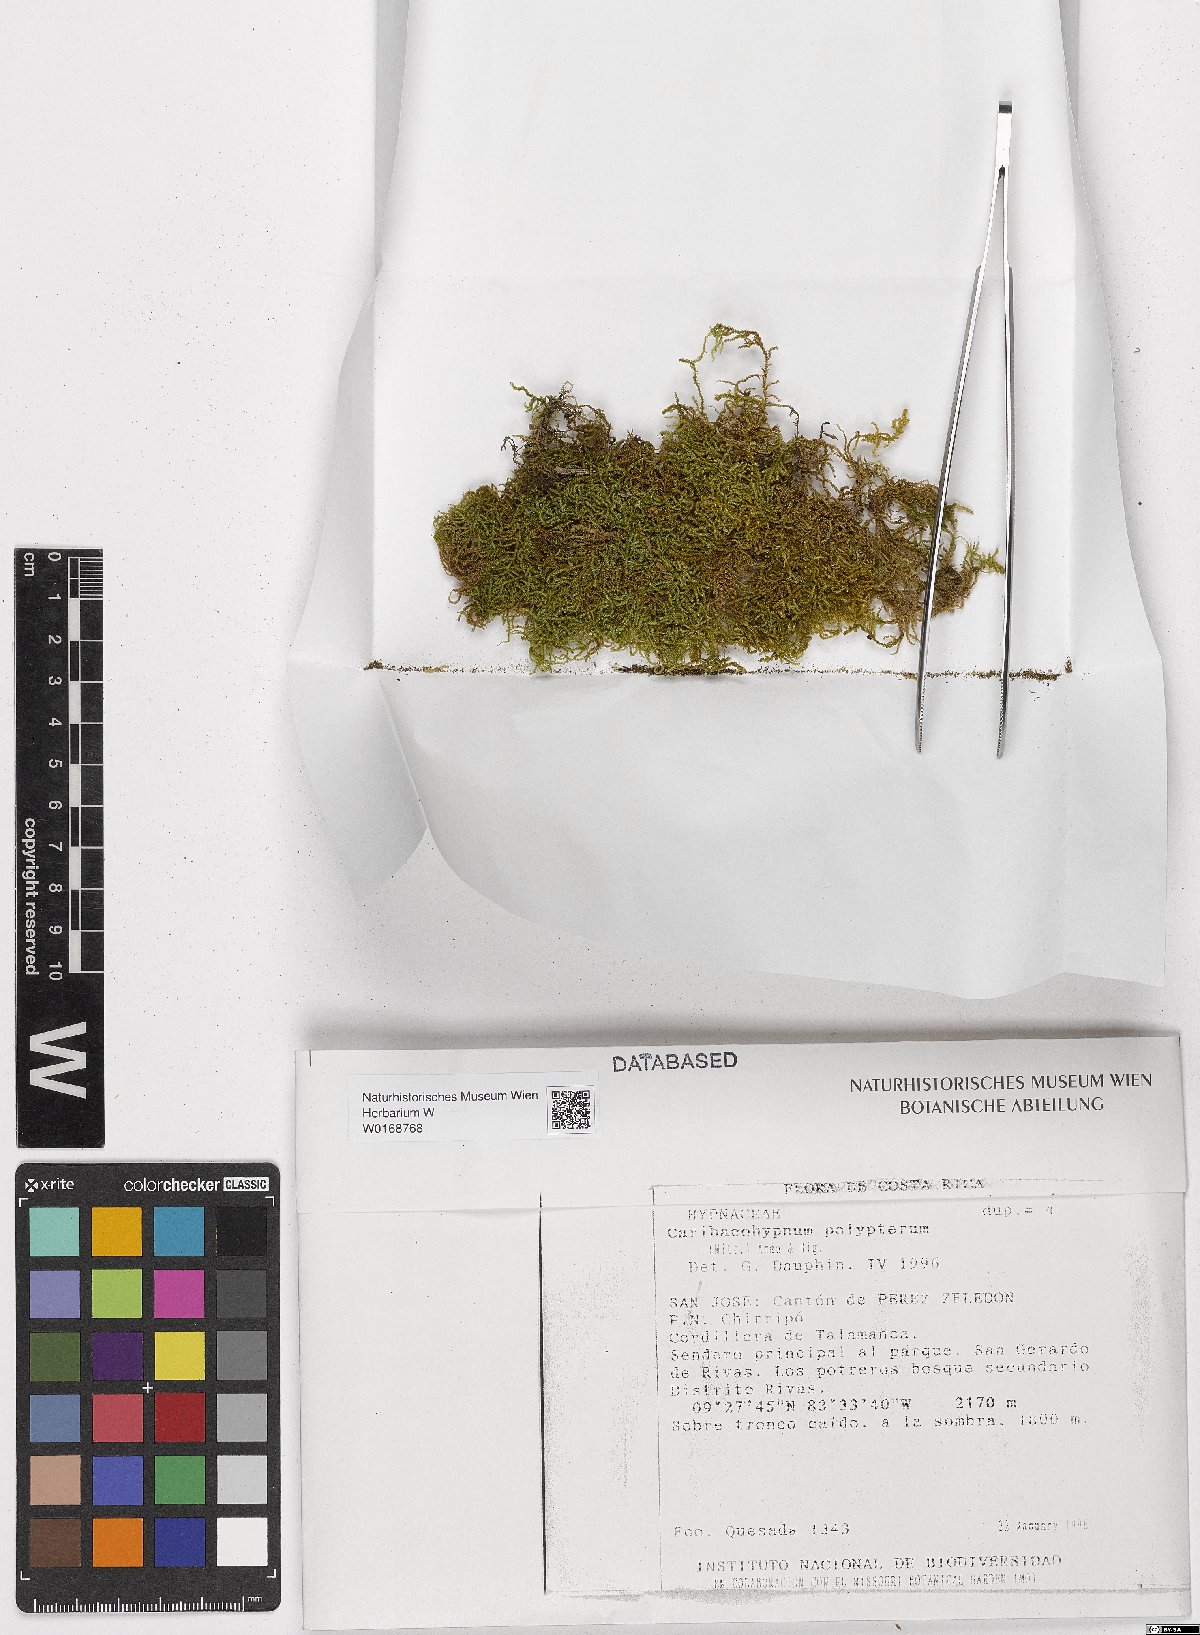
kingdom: Plantae
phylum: Bryophyta
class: Bryopsida
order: Hypnales
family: Taxiphyllaceae
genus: Caribaeohypnum
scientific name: Caribaeohypnum polypterum
